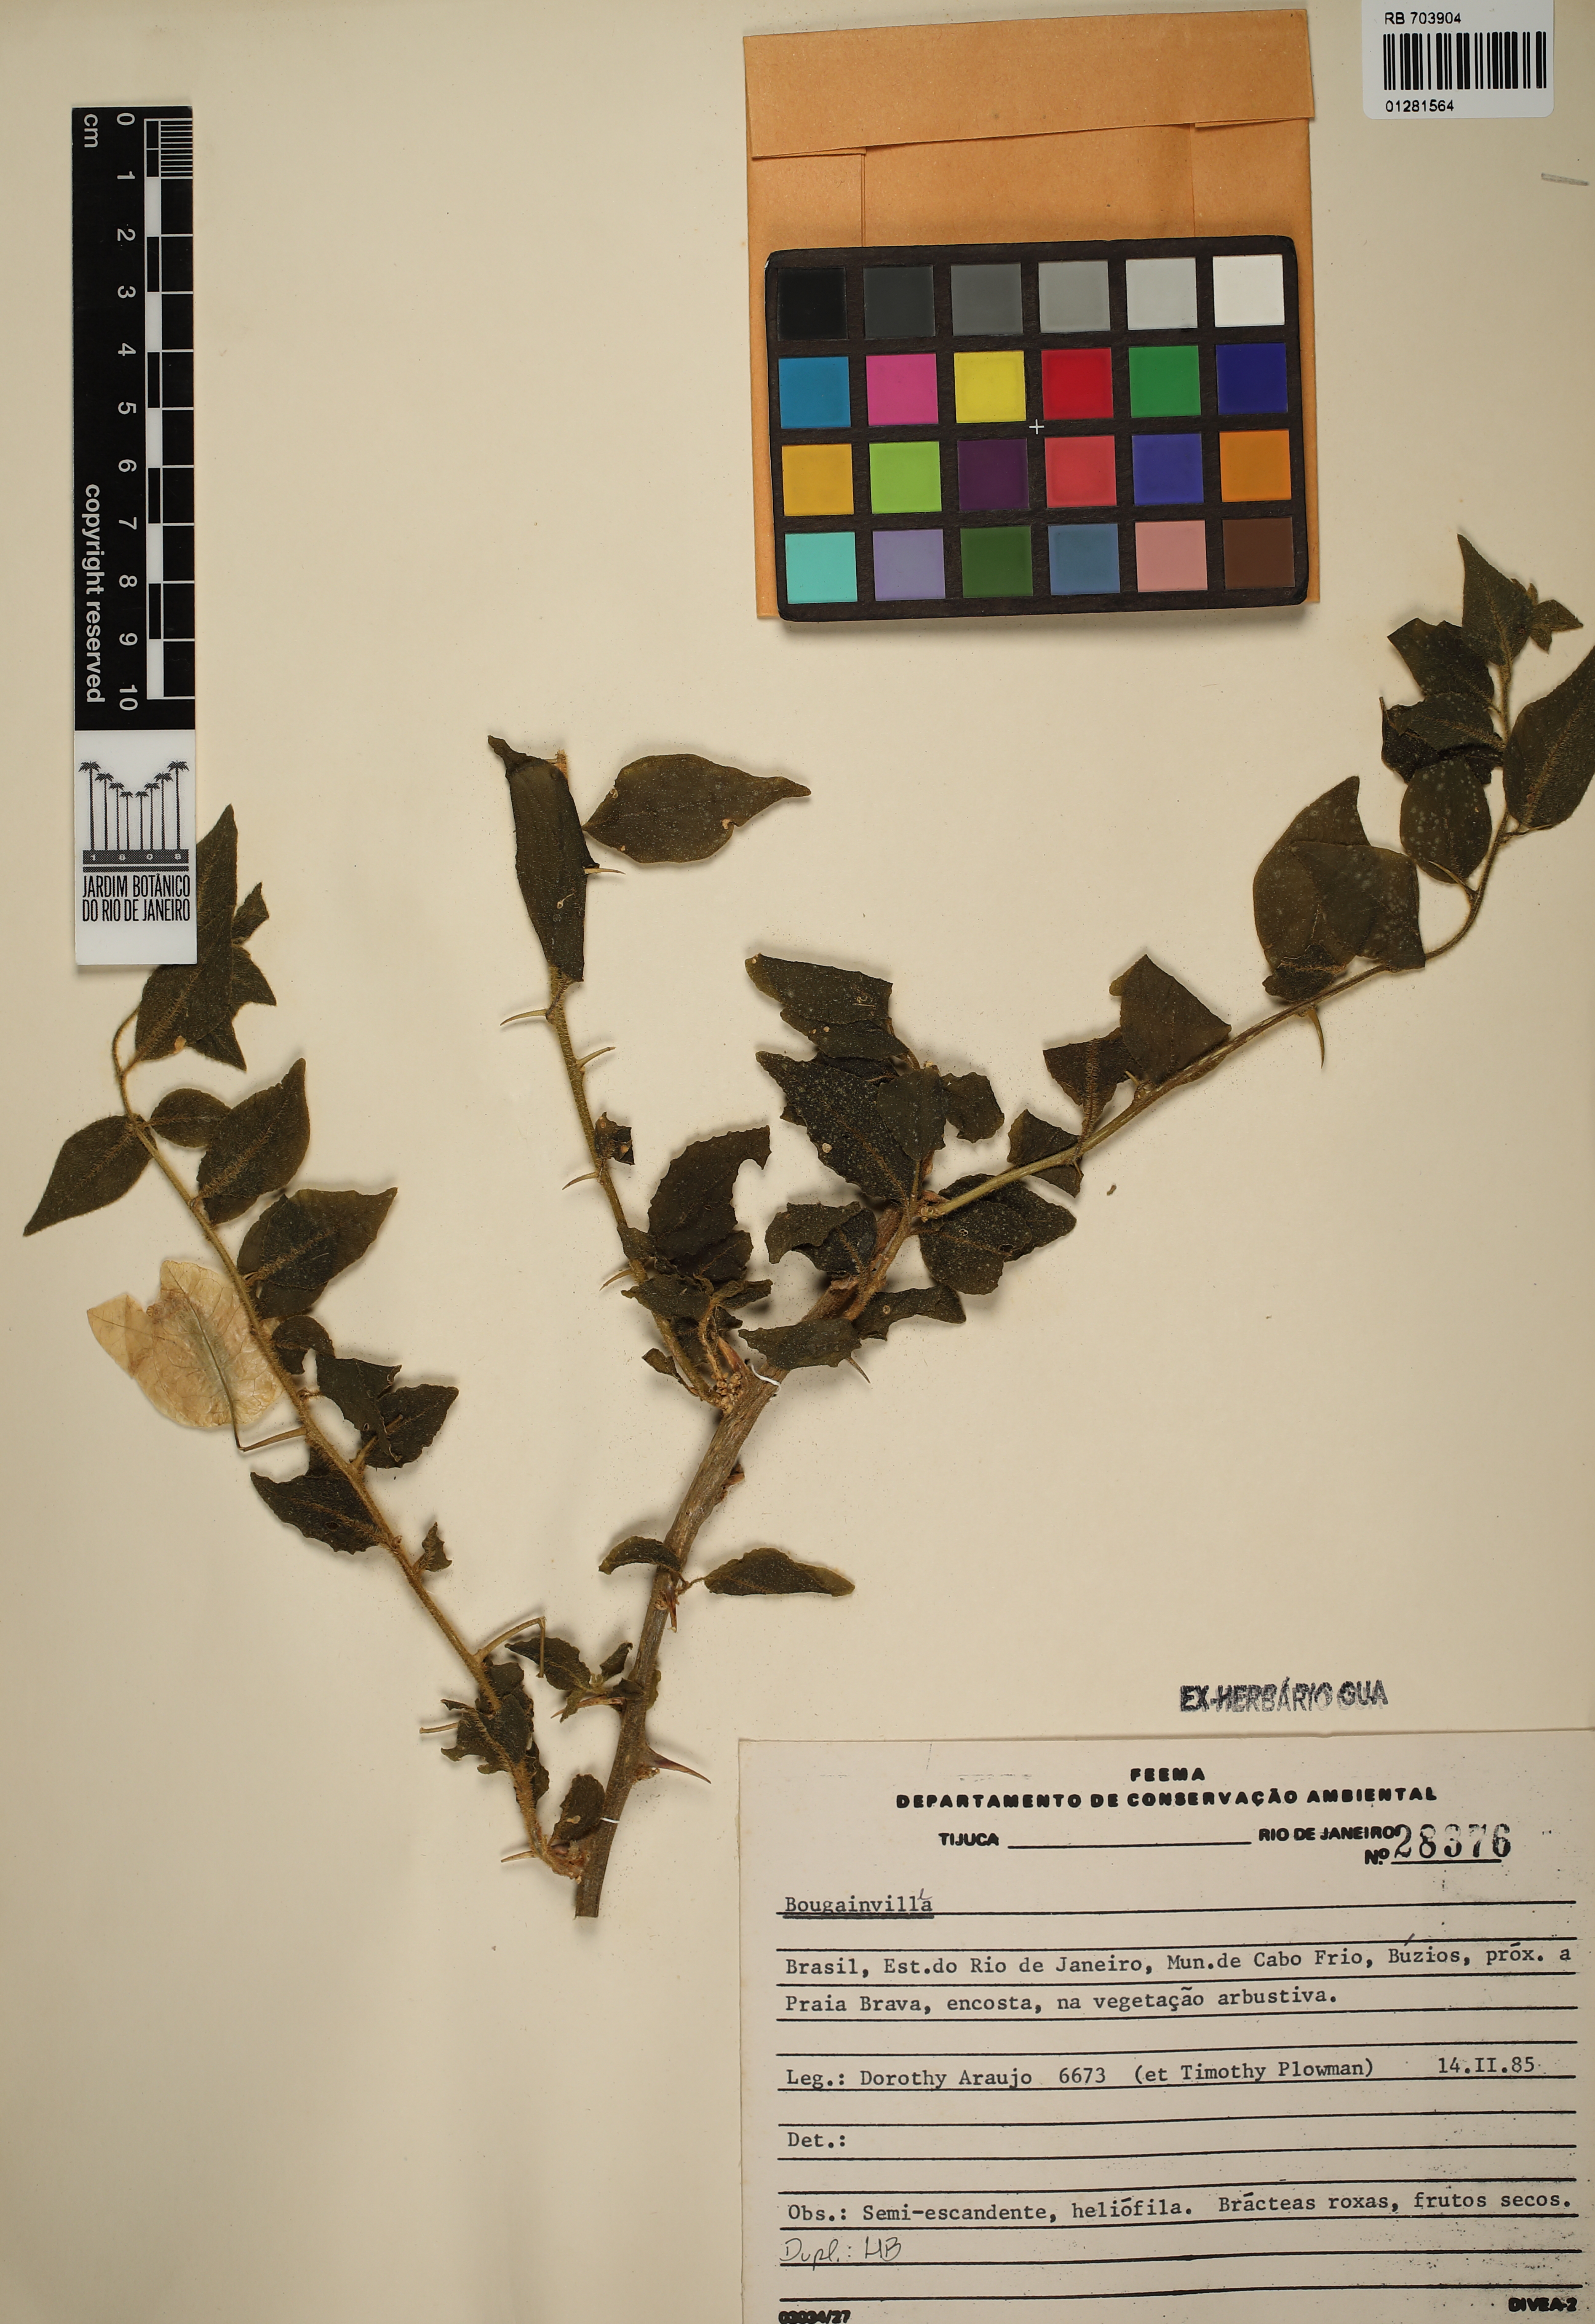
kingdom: Plantae
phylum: Tracheophyta
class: Magnoliopsida
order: Caryophyllales
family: Nyctaginaceae
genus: Bougainvillea
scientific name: Bougainvillea
